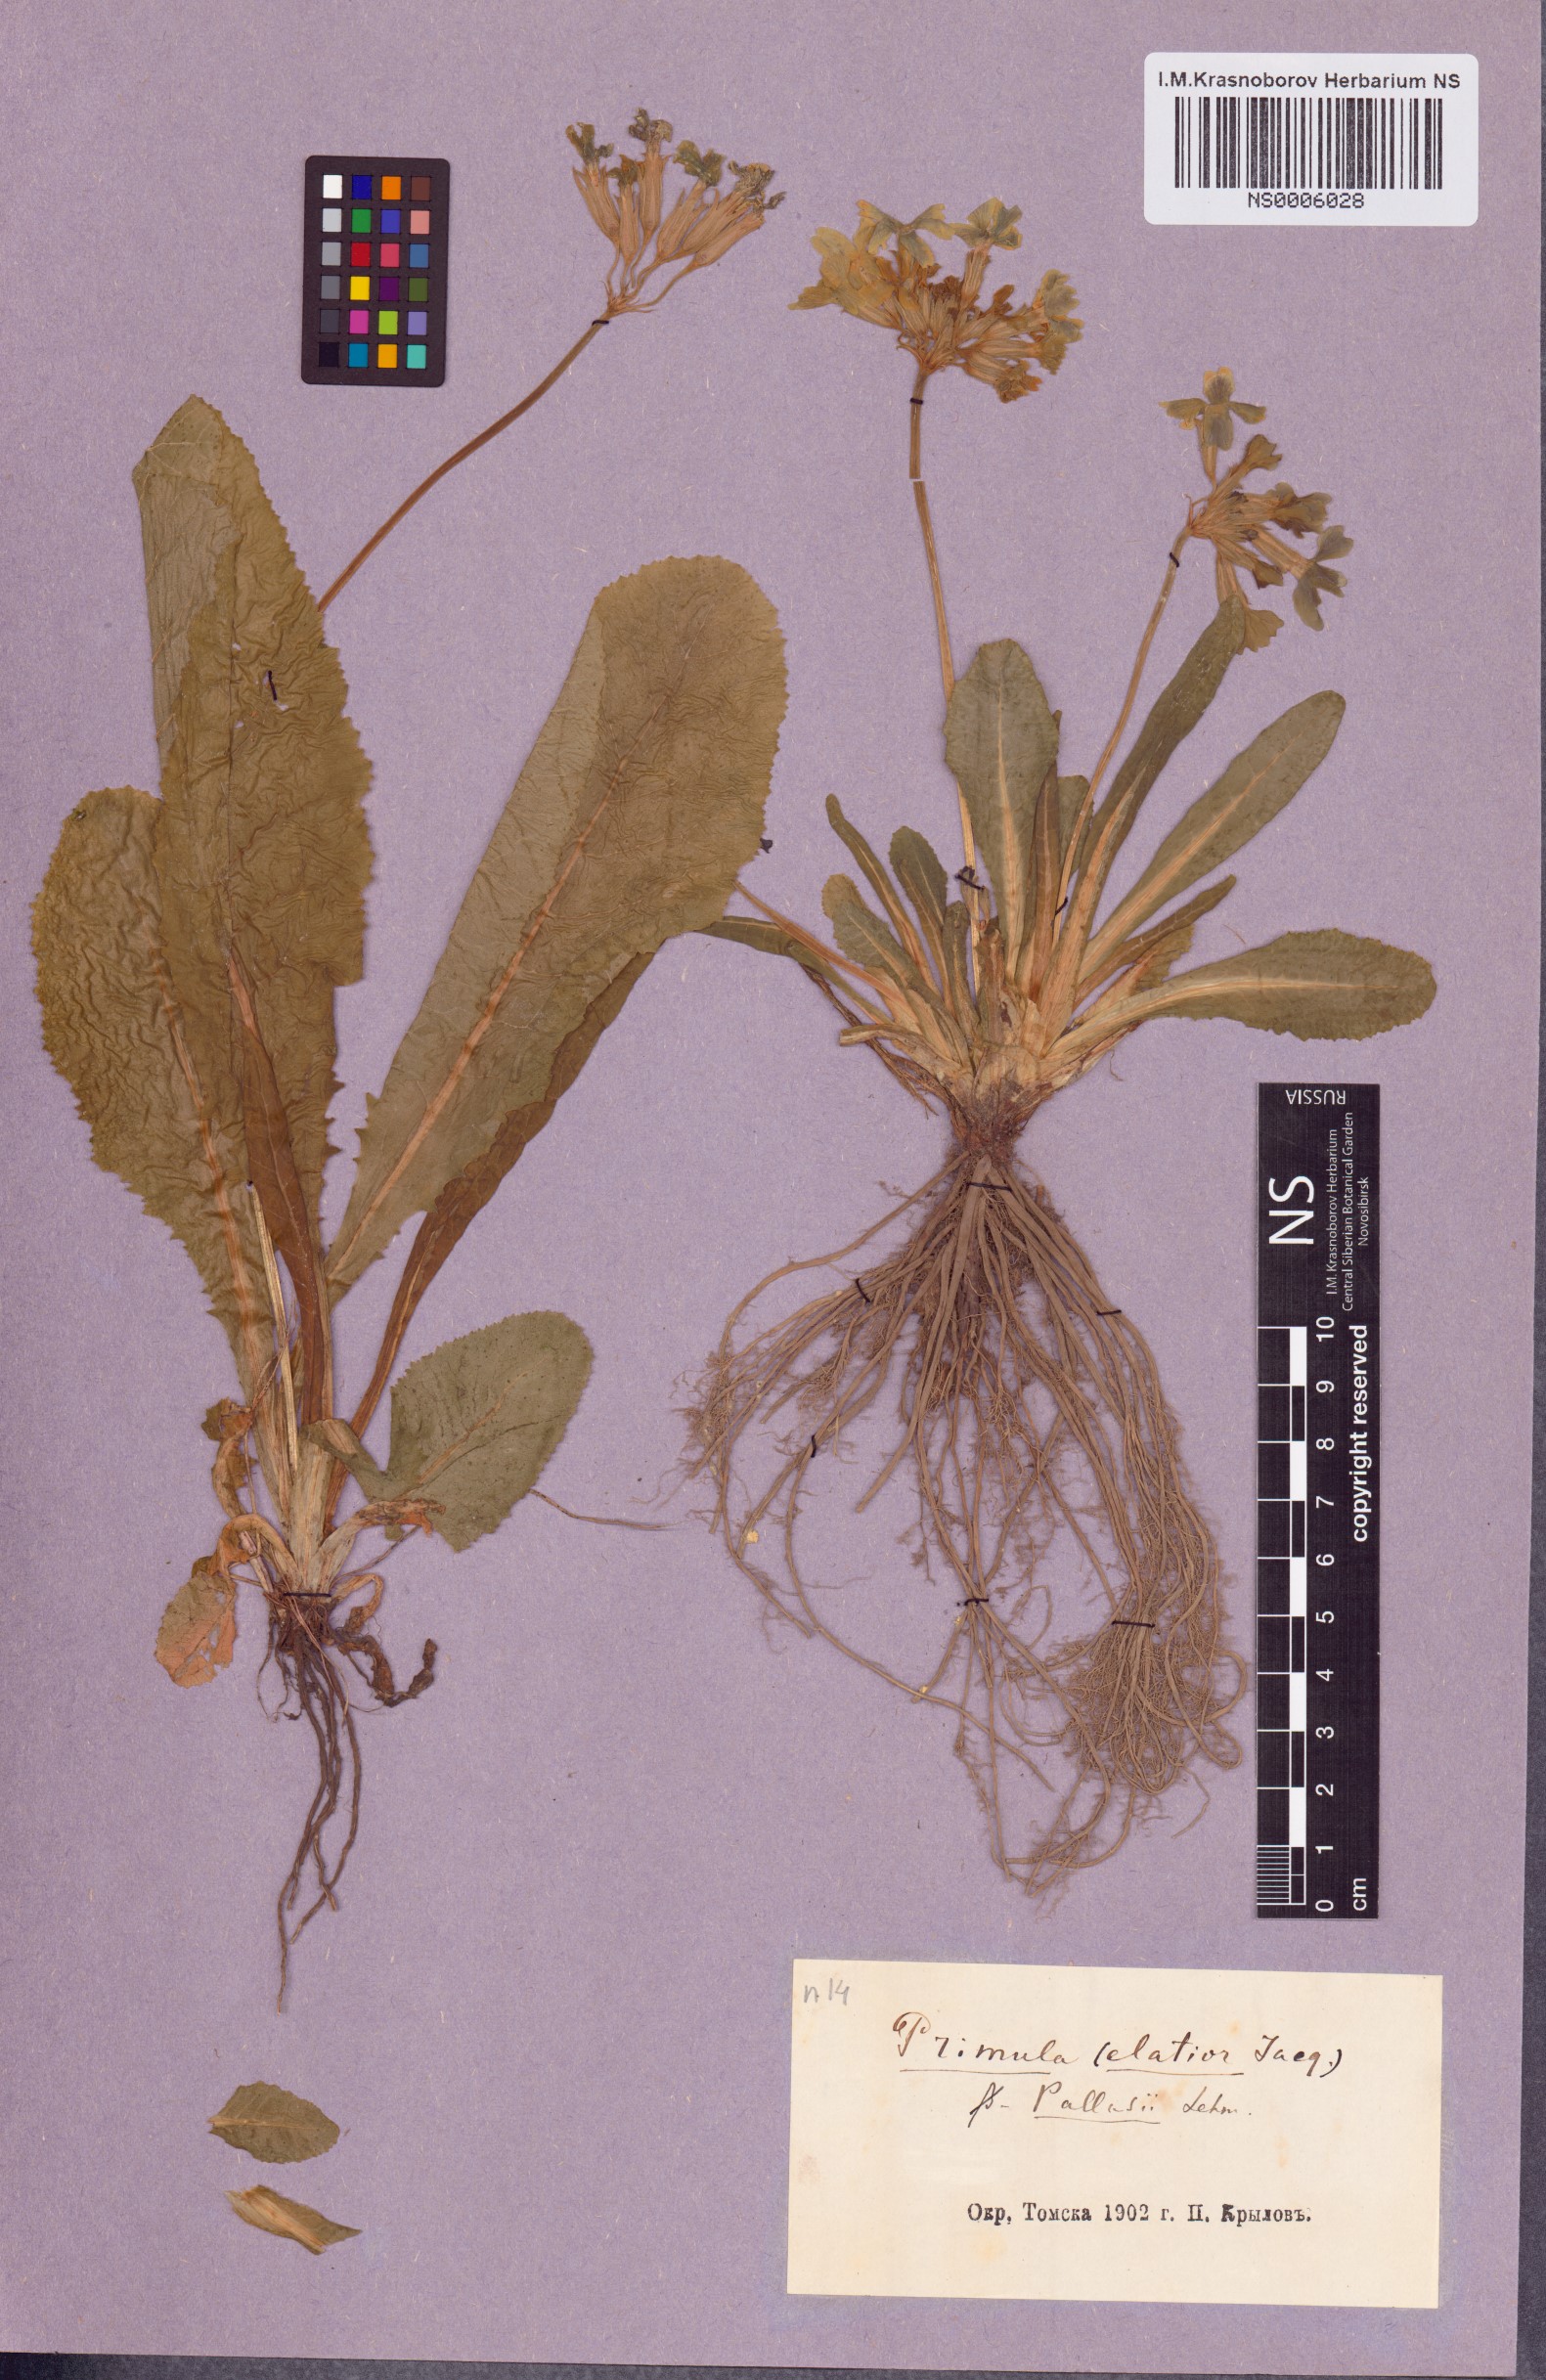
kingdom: Plantae
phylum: Tracheophyta
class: Magnoliopsida
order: Ericales
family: Primulaceae
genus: Primula
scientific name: Primula elatior
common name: Oxlip
